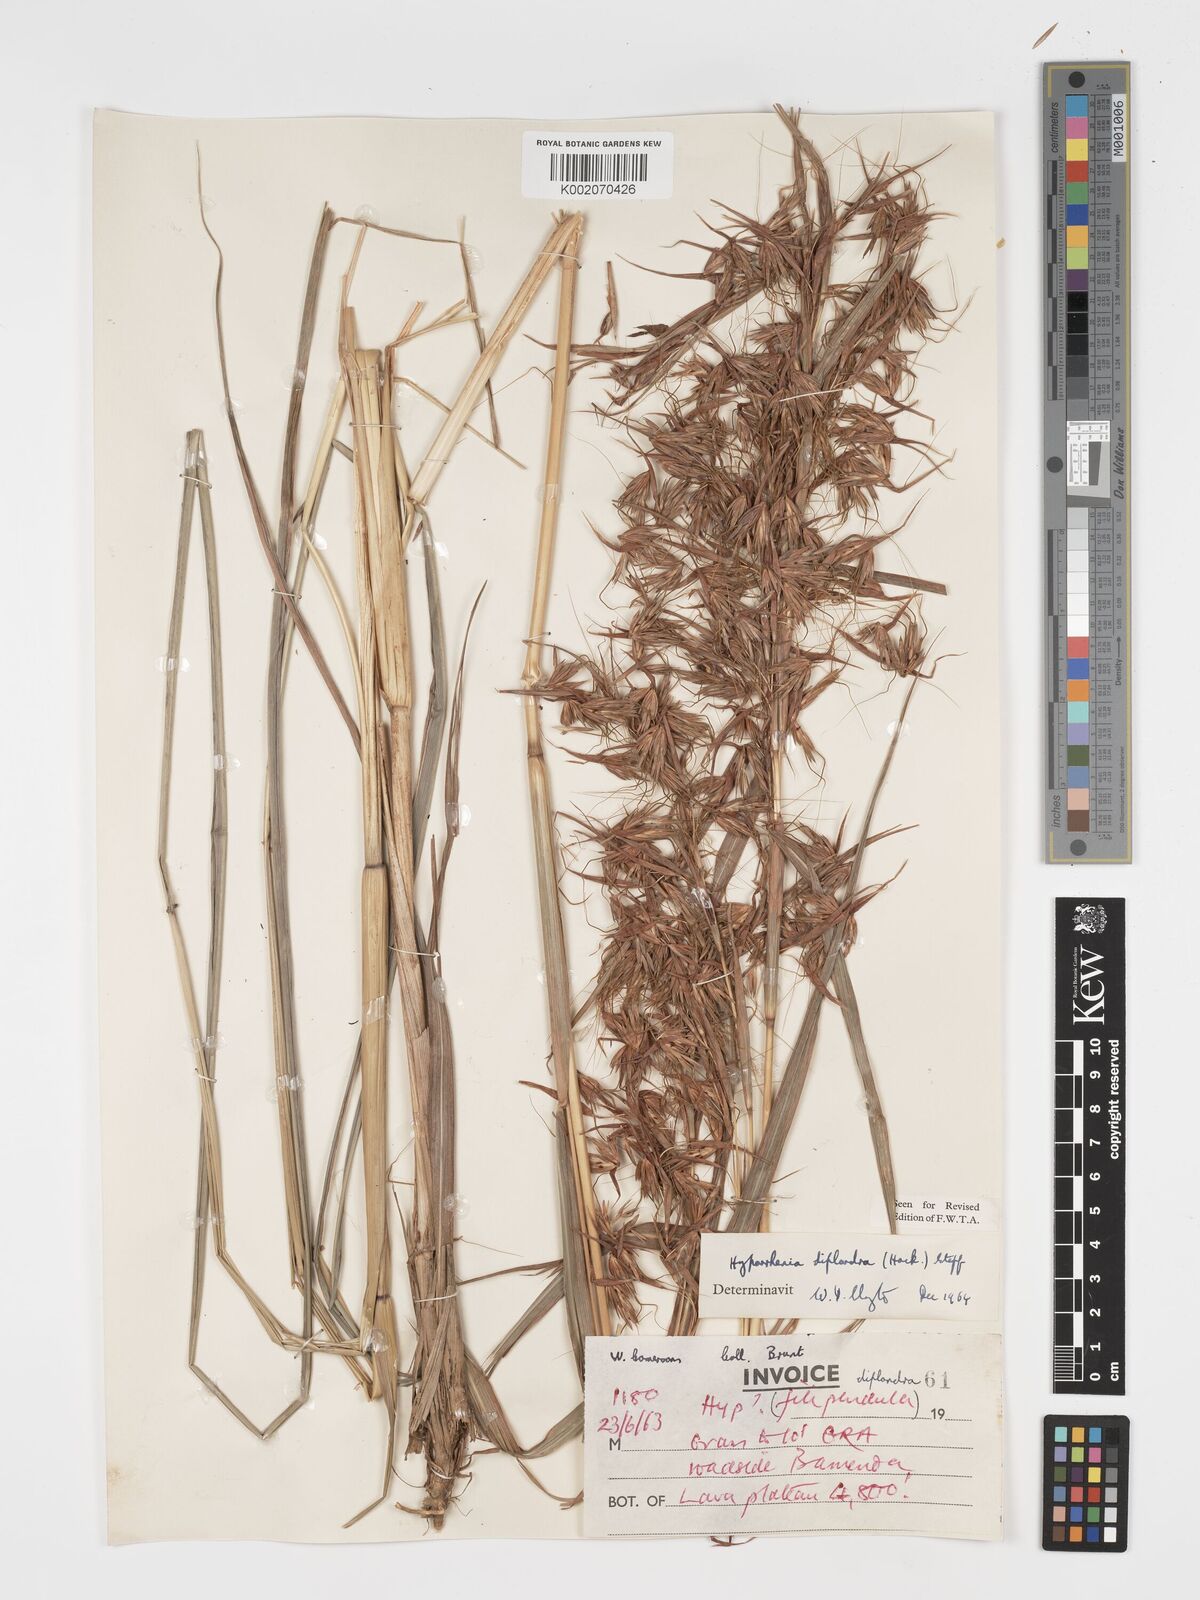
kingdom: Plantae
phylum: Tracheophyta
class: Liliopsida
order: Poales
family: Poaceae
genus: Hyparrhenia
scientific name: Hyparrhenia diplandra
